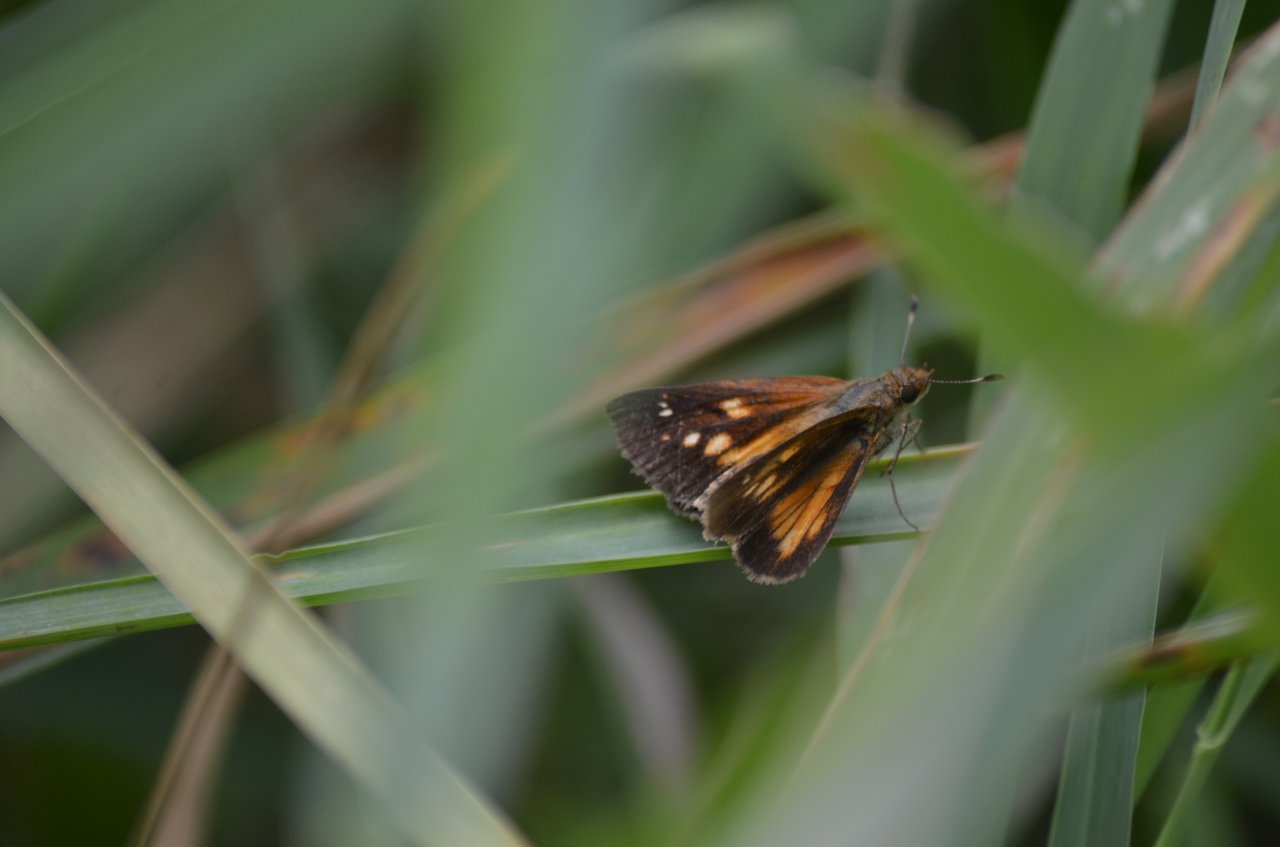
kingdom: Animalia
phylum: Arthropoda
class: Insecta
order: Lepidoptera
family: Hesperiidae
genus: Poanes
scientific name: Poanes viator
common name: Broad-winged Skipper
